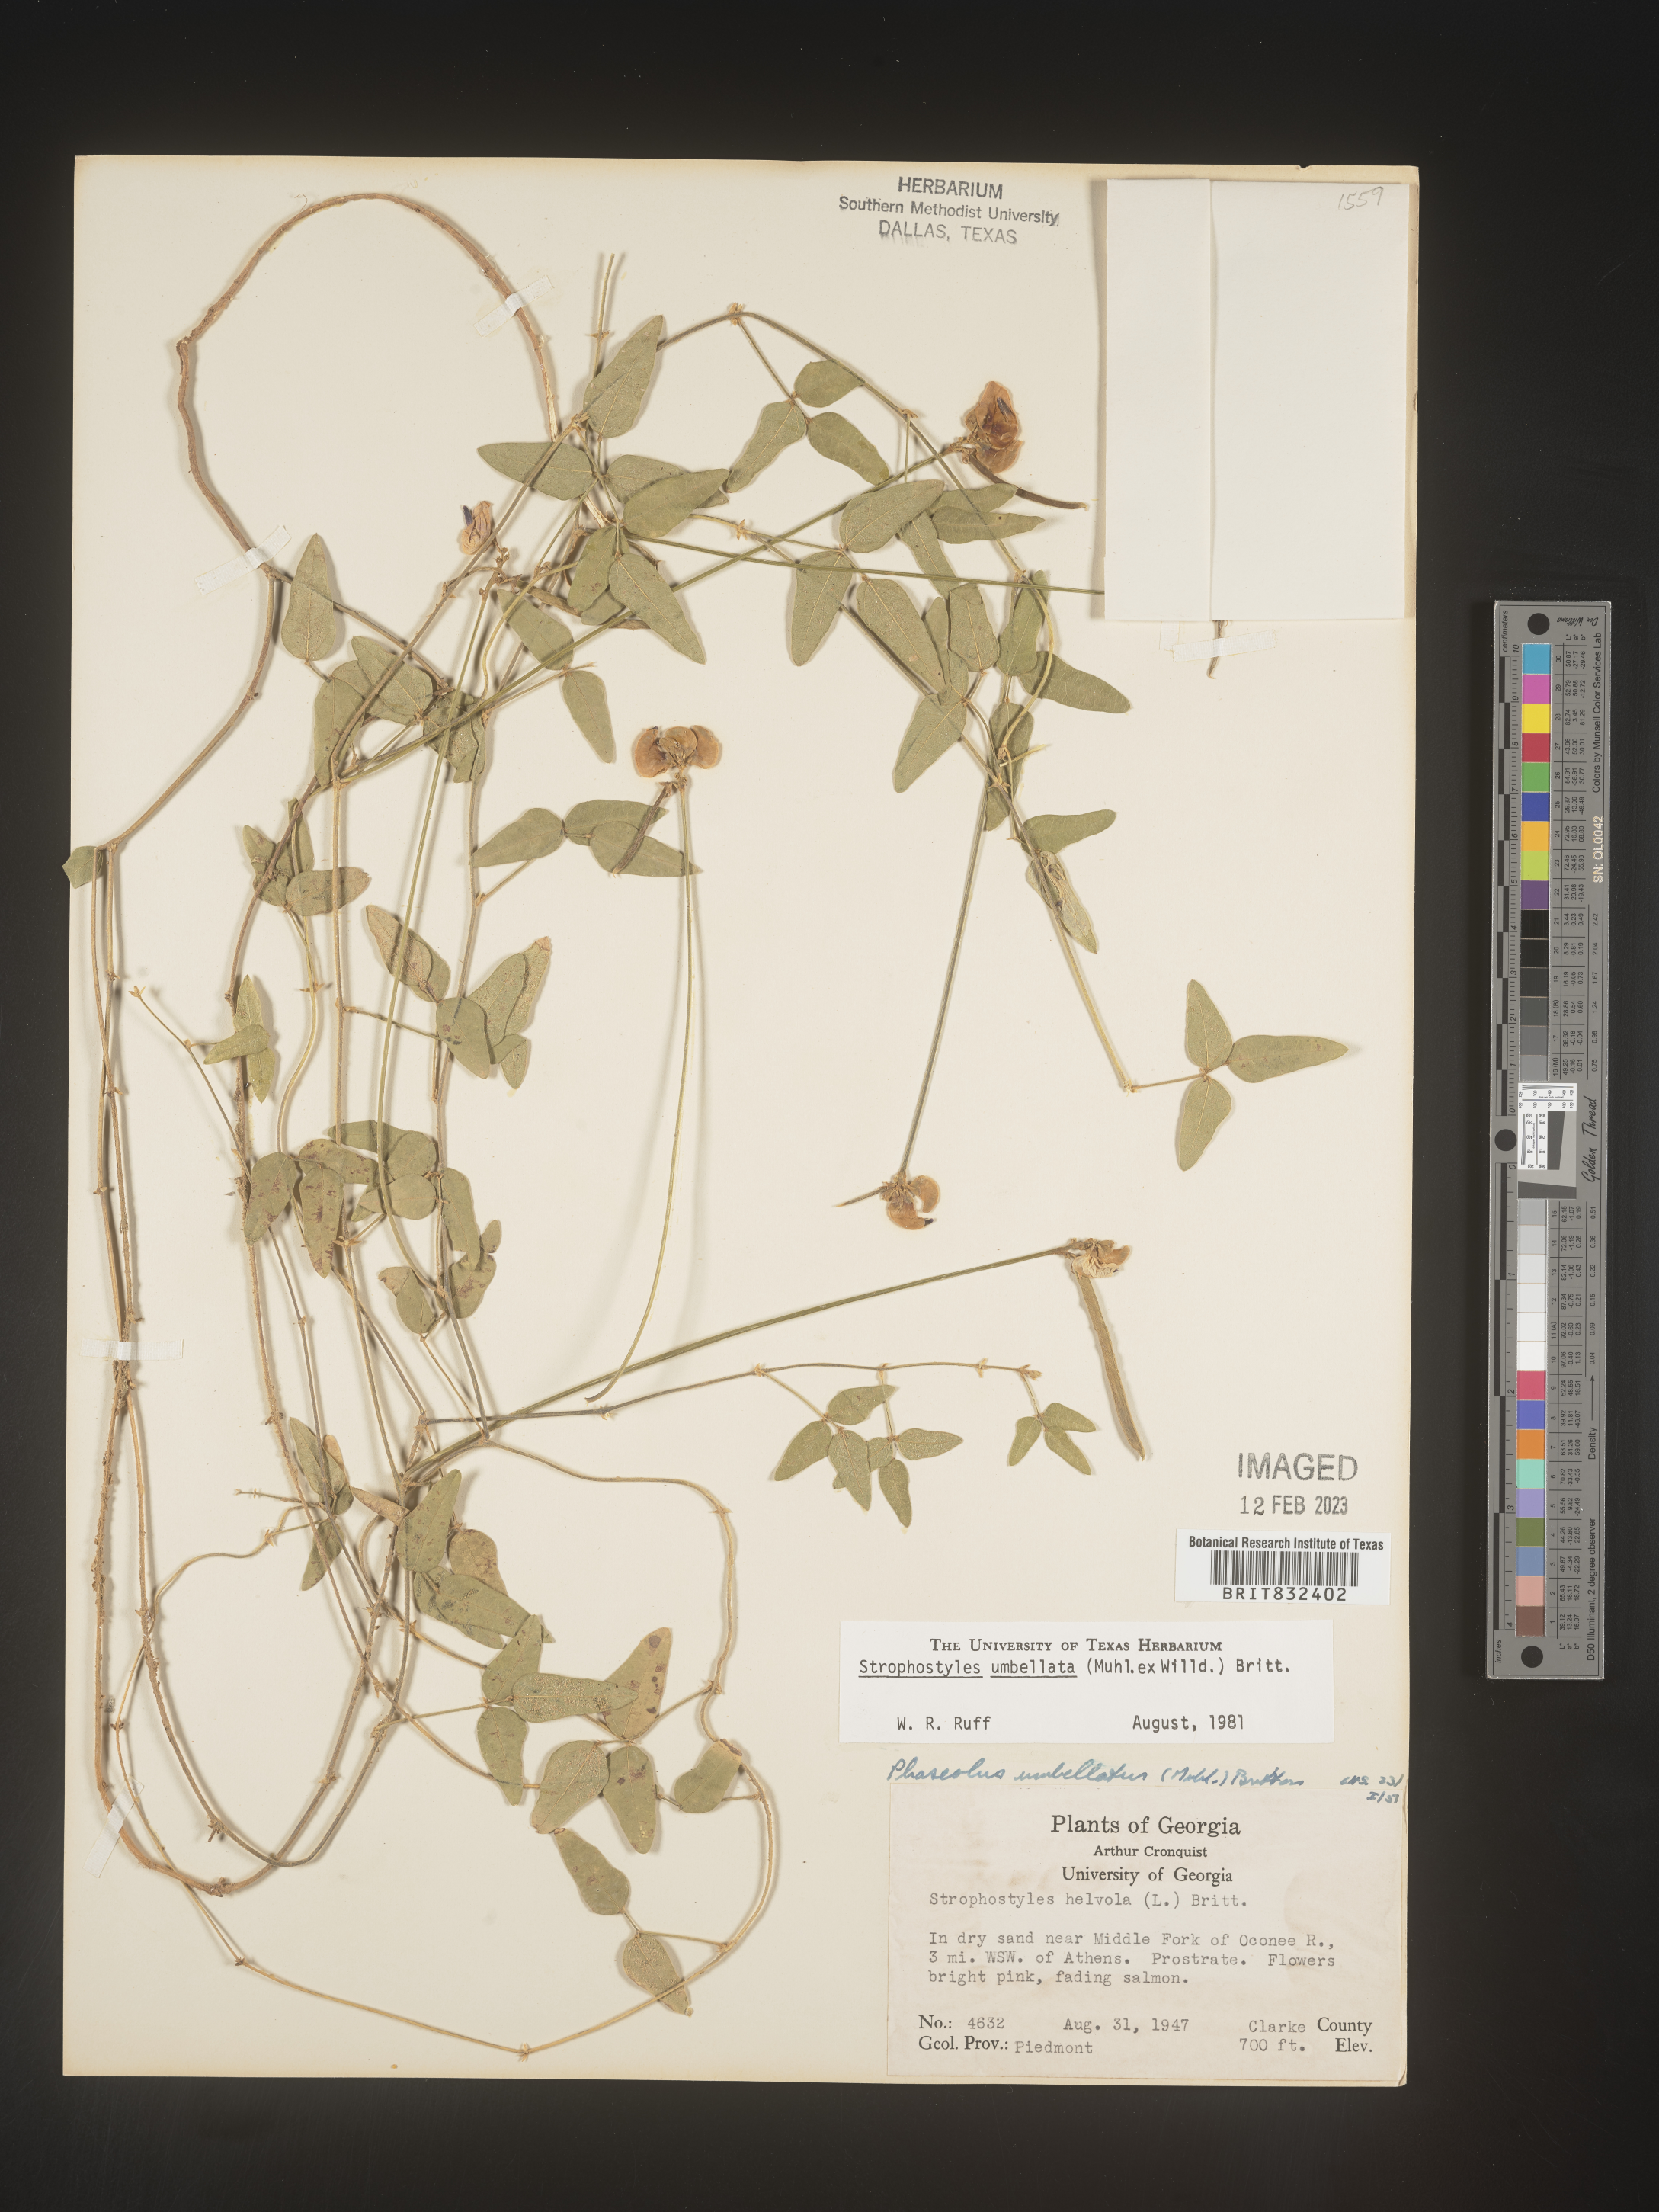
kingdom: Plantae
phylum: Tracheophyta
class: Magnoliopsida
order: Fabales
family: Fabaceae
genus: Strophostyles
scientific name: Strophostyles umbellata
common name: Perennial wild bean
